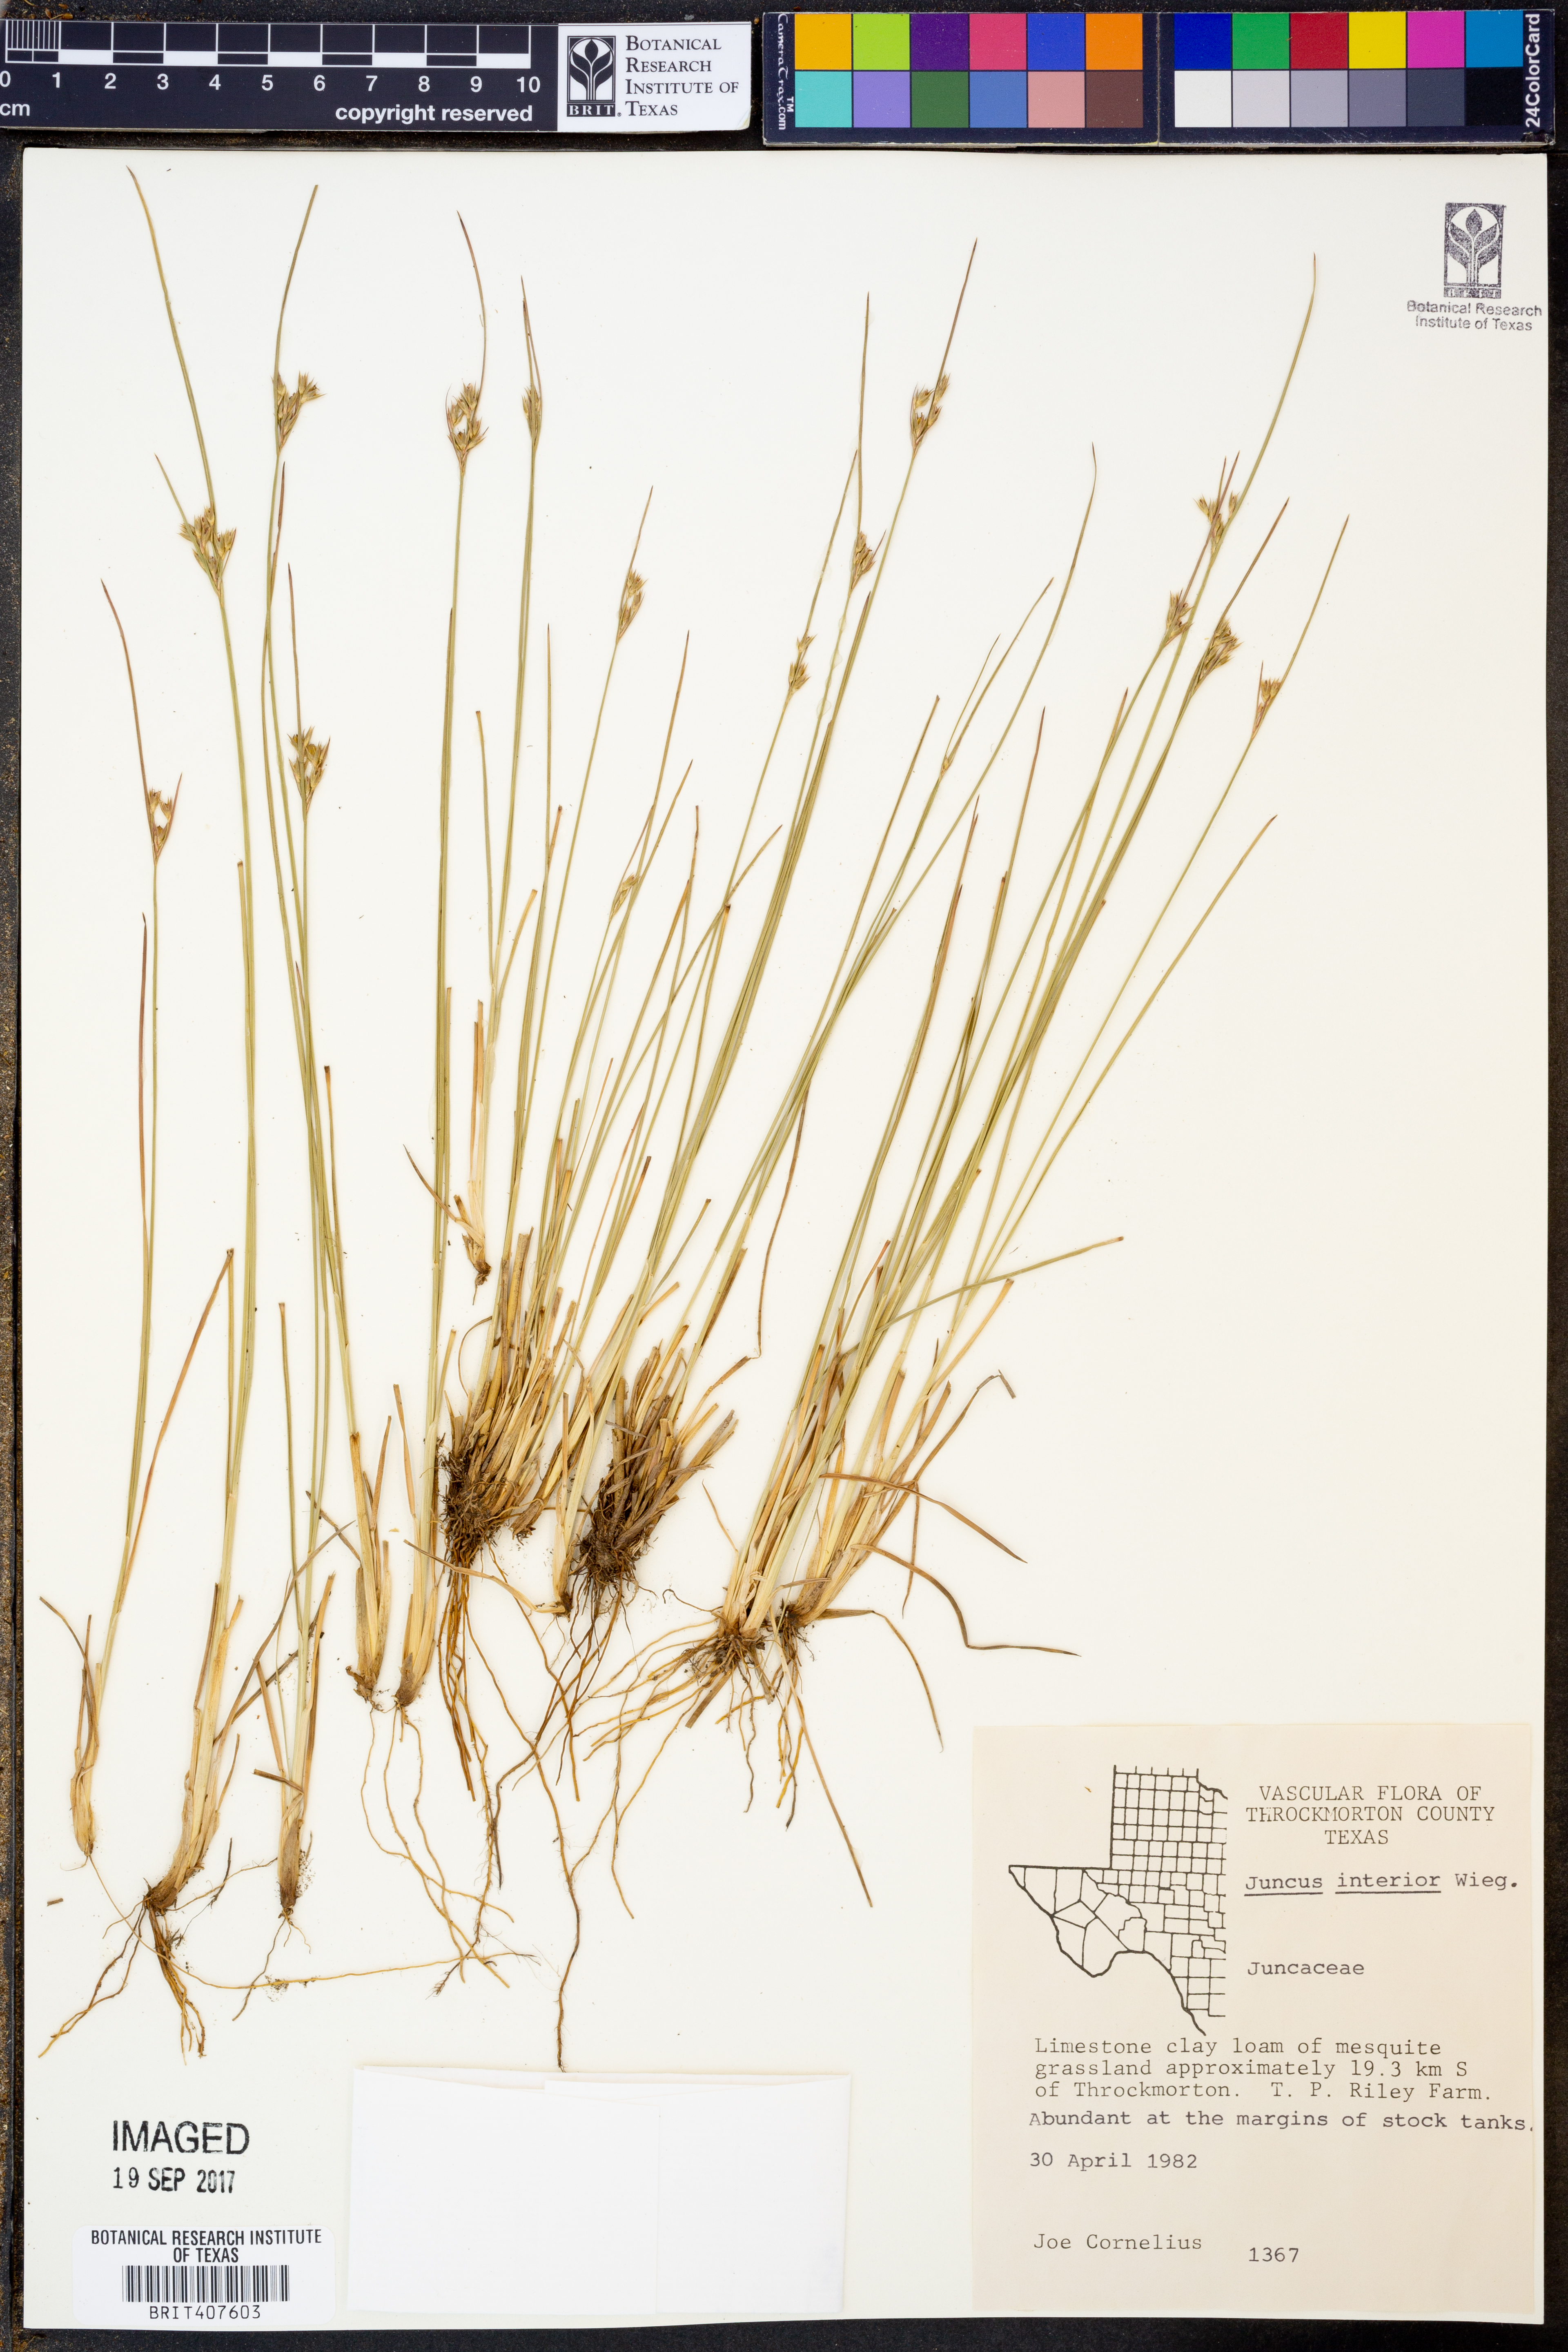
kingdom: Plantae
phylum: Tracheophyta
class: Liliopsida
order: Poales
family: Juncaceae
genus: Juncus
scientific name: Juncus interior
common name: Interior rush
